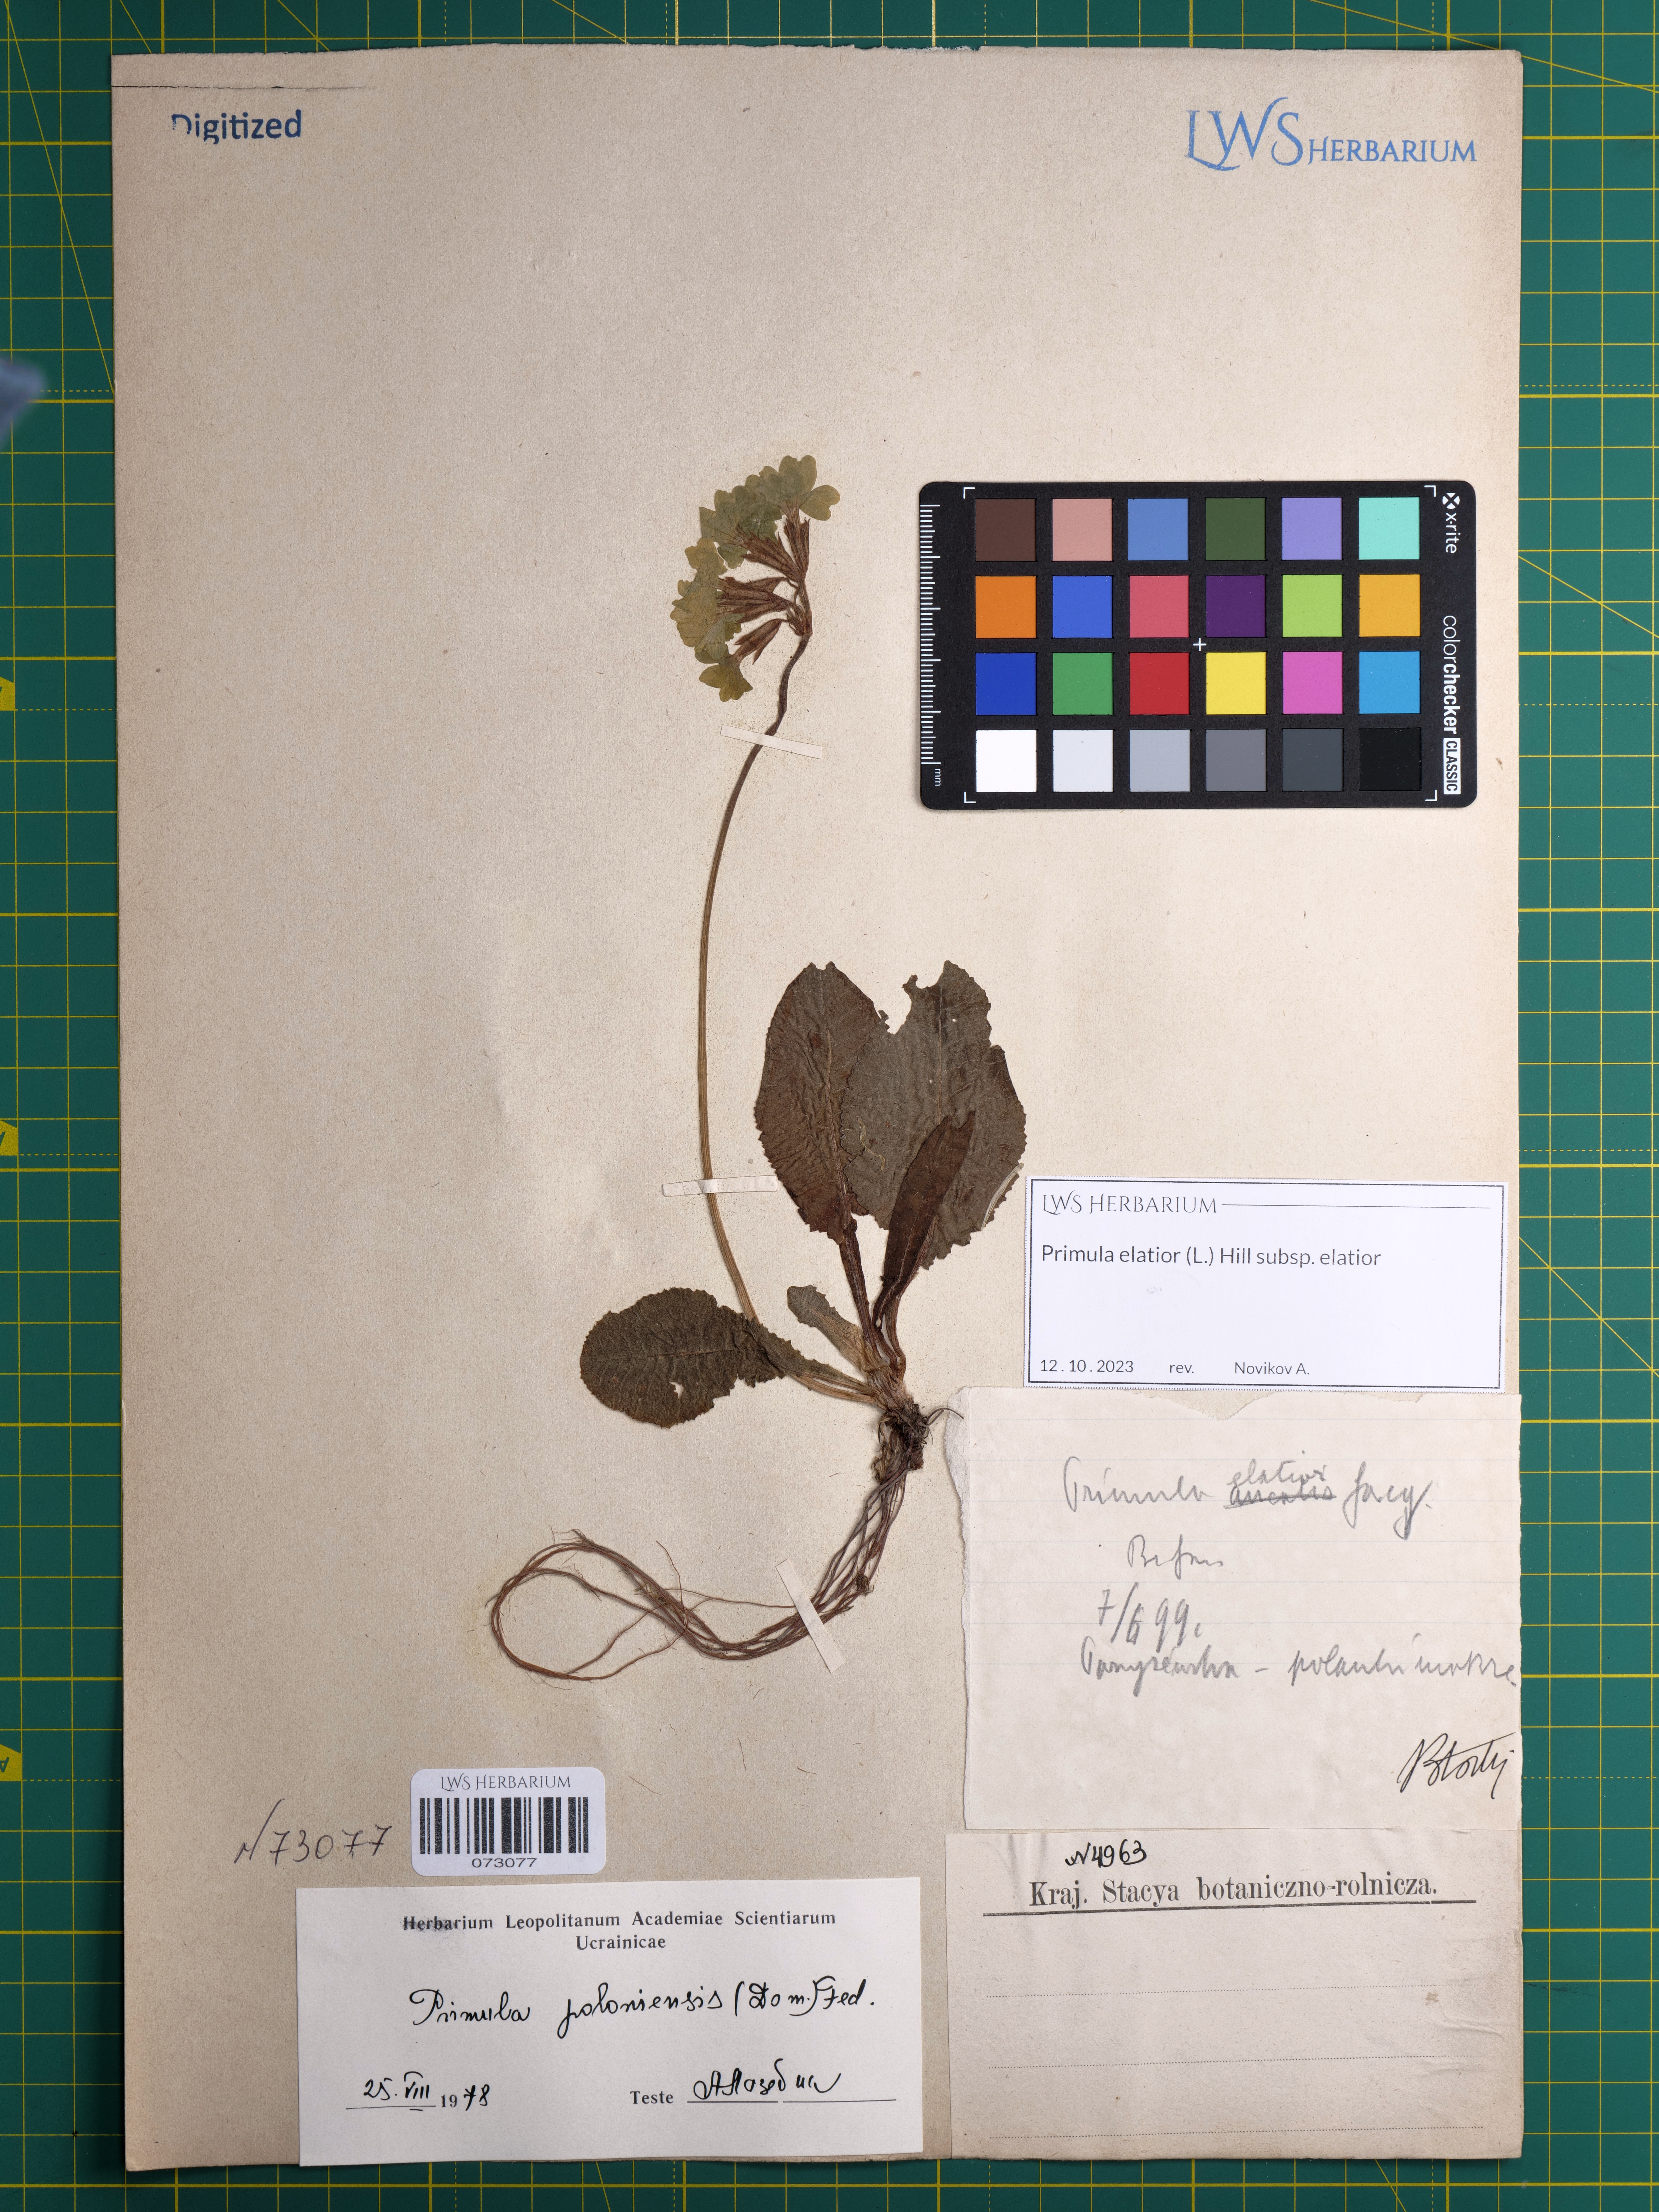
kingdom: Plantae
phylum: Tracheophyta
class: Magnoliopsida
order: Ericales
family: Primulaceae
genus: Primula
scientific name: Primula elatior
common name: Oxlip
